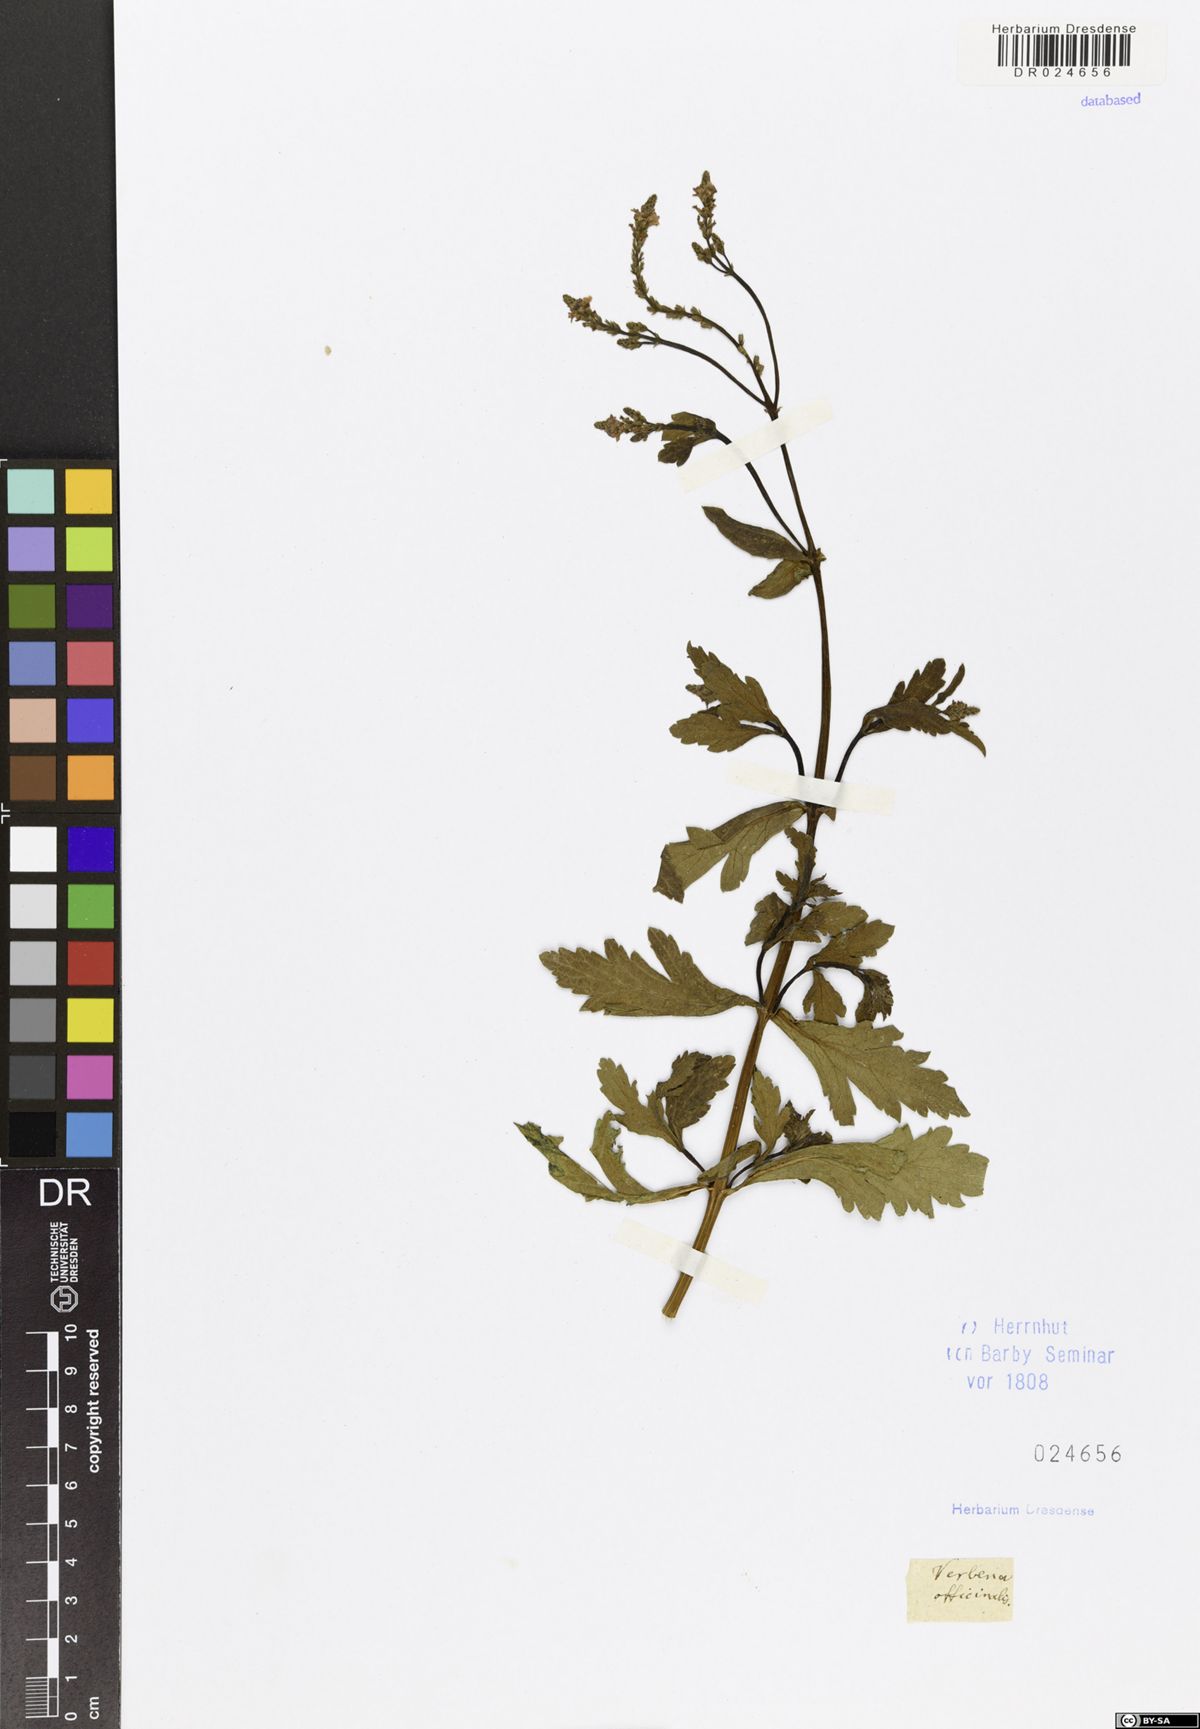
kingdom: Plantae
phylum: Tracheophyta
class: Magnoliopsida
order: Lamiales
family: Verbenaceae
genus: Verbena
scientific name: Verbena officinalis
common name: Vervain
